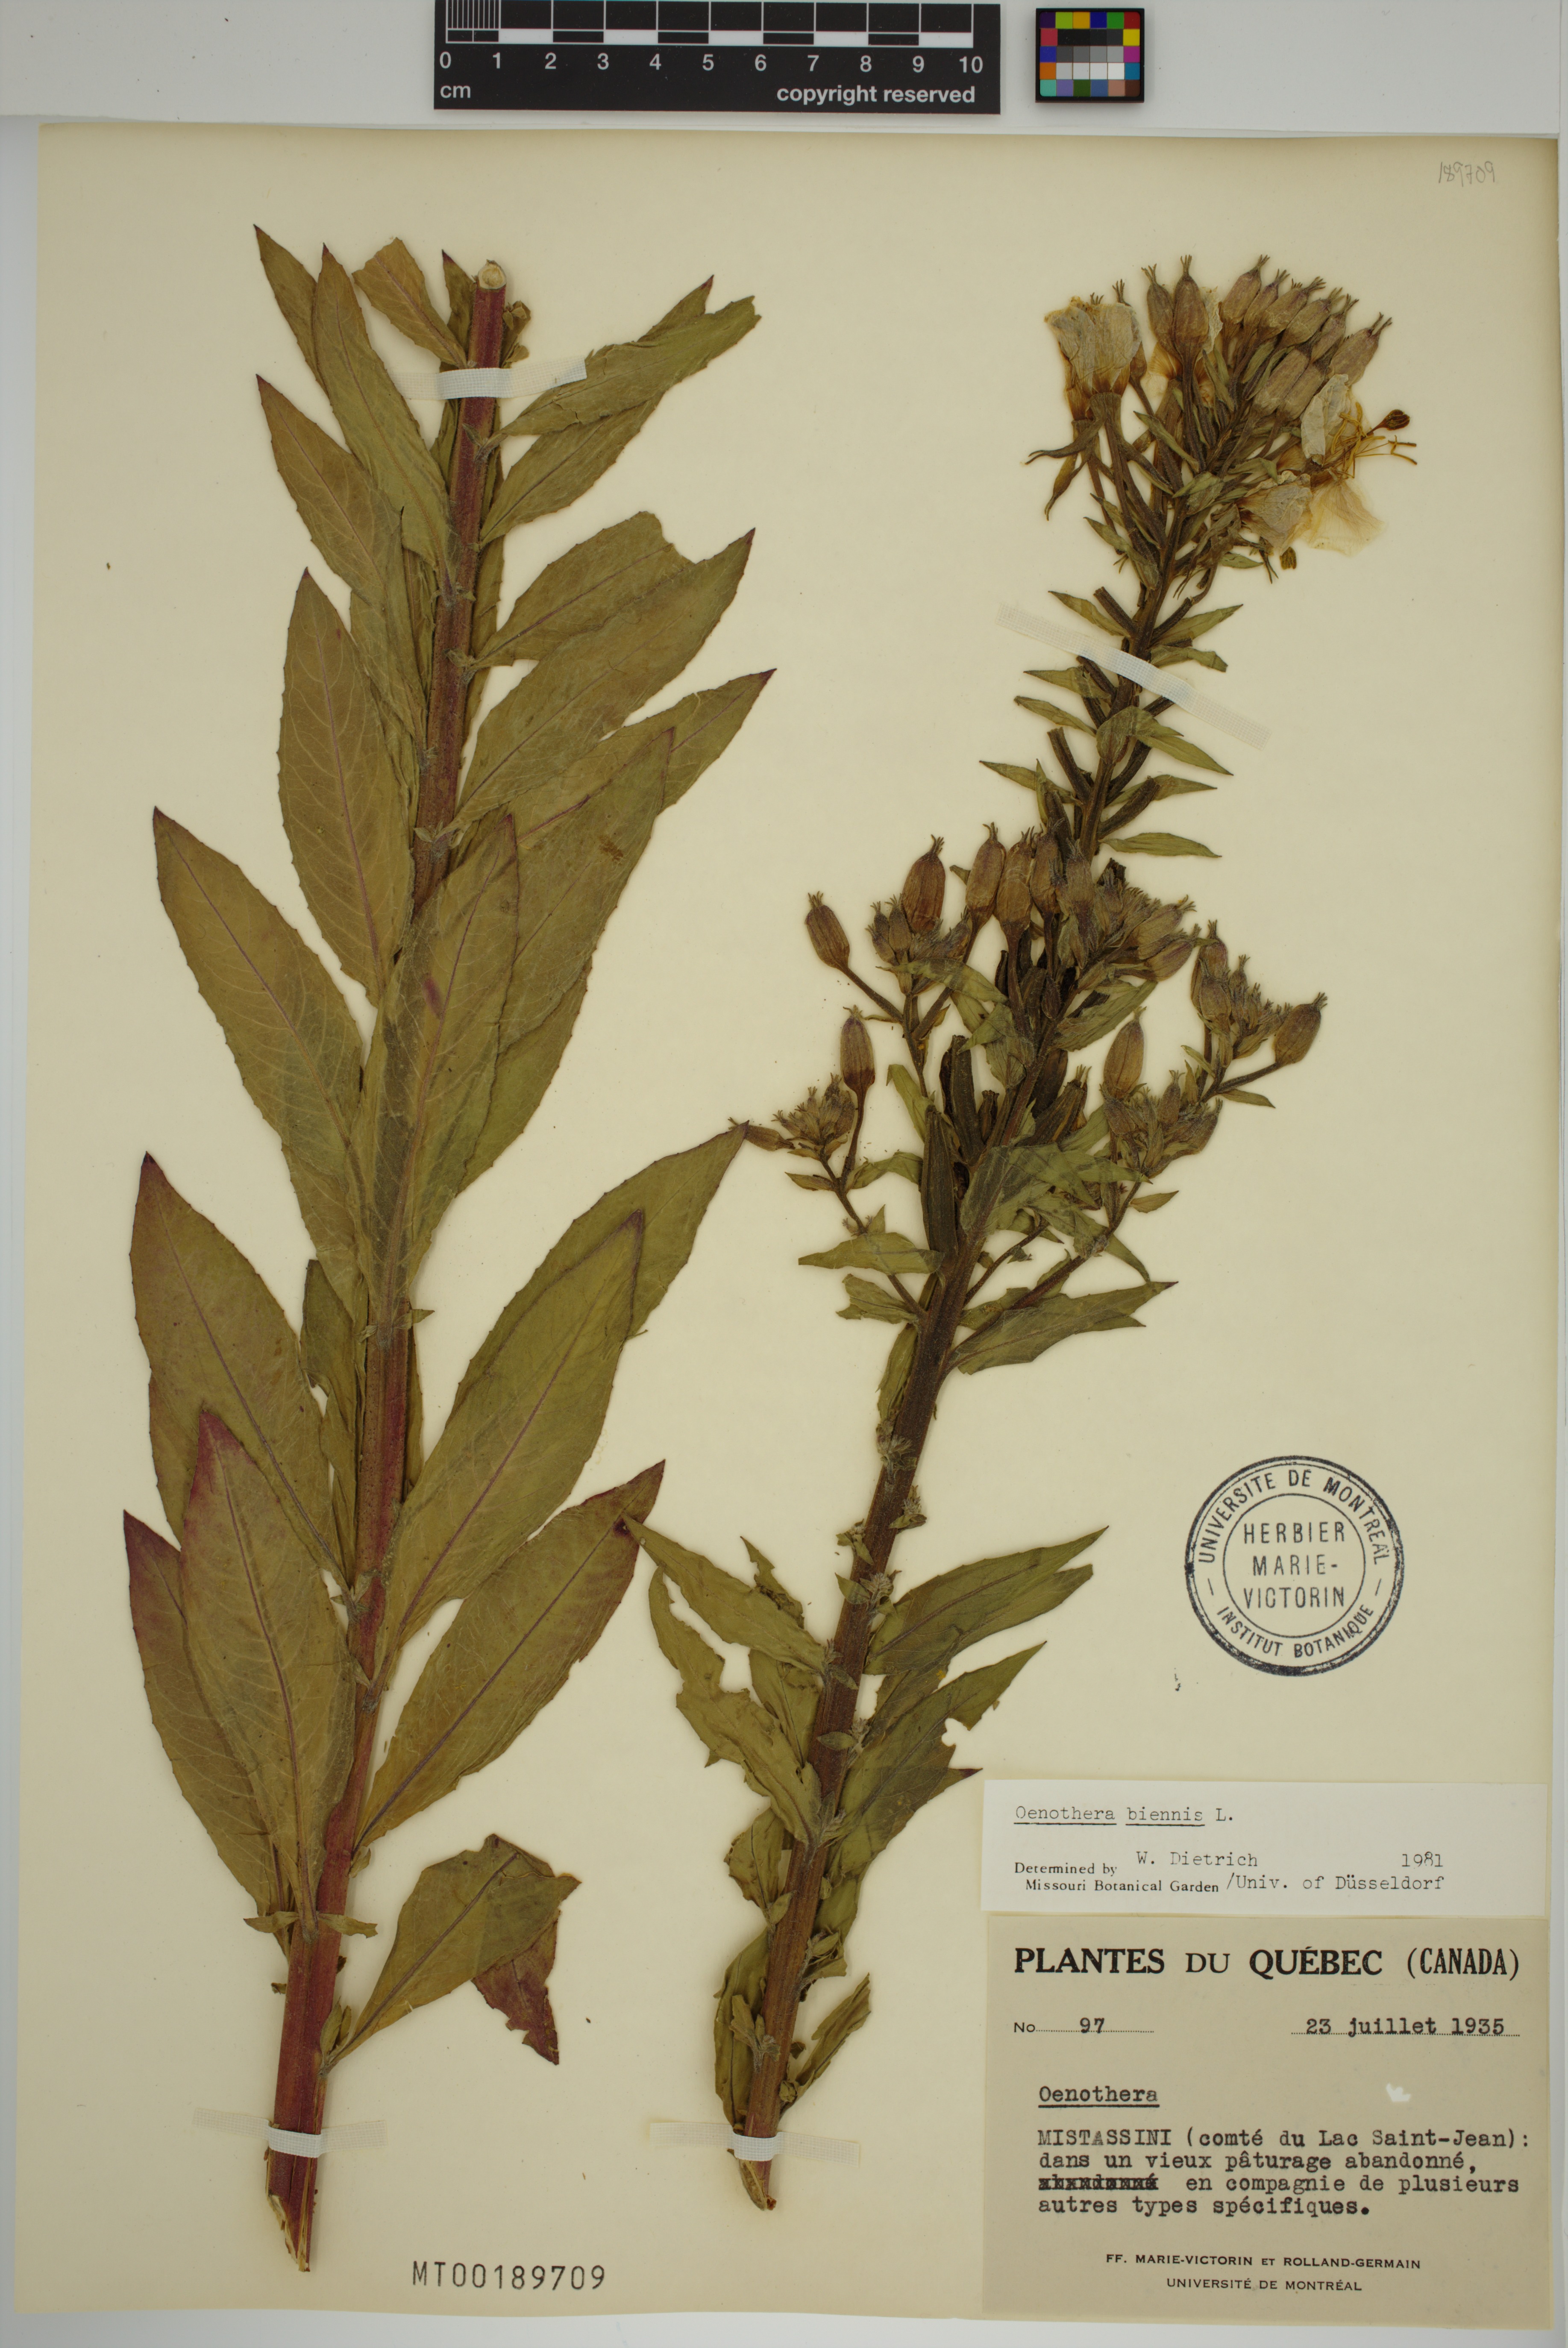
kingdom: Plantae
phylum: Tracheophyta
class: Magnoliopsida
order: Myrtales
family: Onagraceae
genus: Oenothera
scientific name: Oenothera biennis
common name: Common evening-primrose
